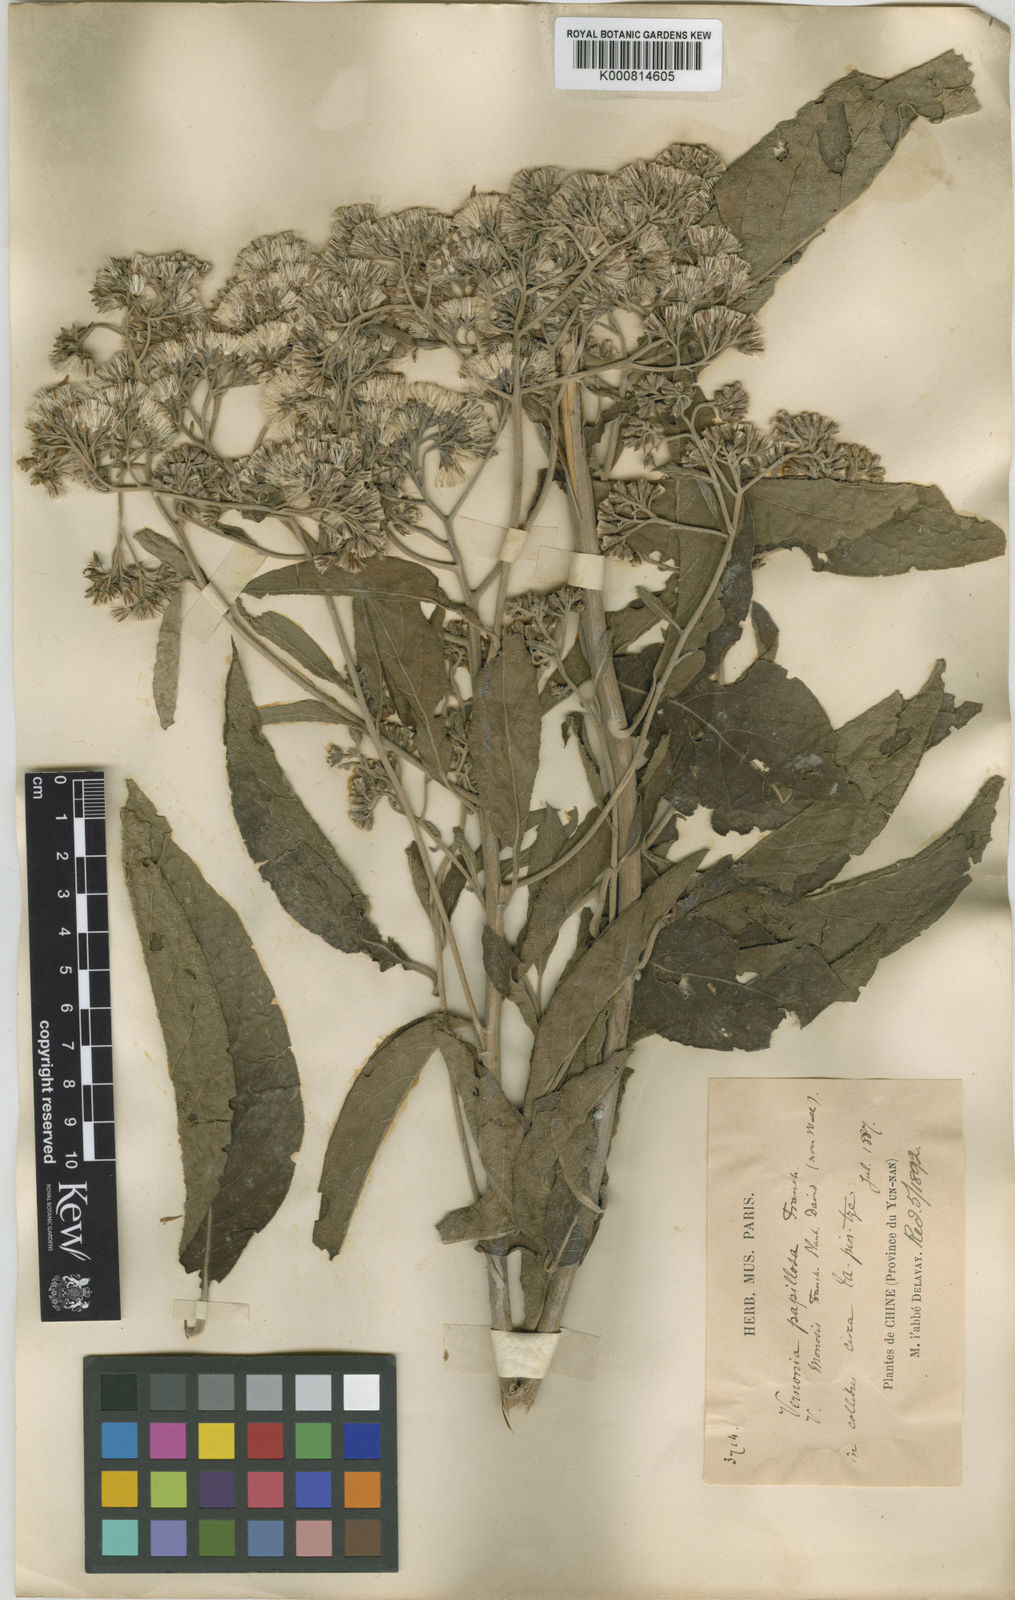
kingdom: Plantae
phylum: Tracheophyta
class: Magnoliopsida
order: Asterales
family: Asteraceae
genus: Strobocalyx
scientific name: Strobocalyx esculenta
